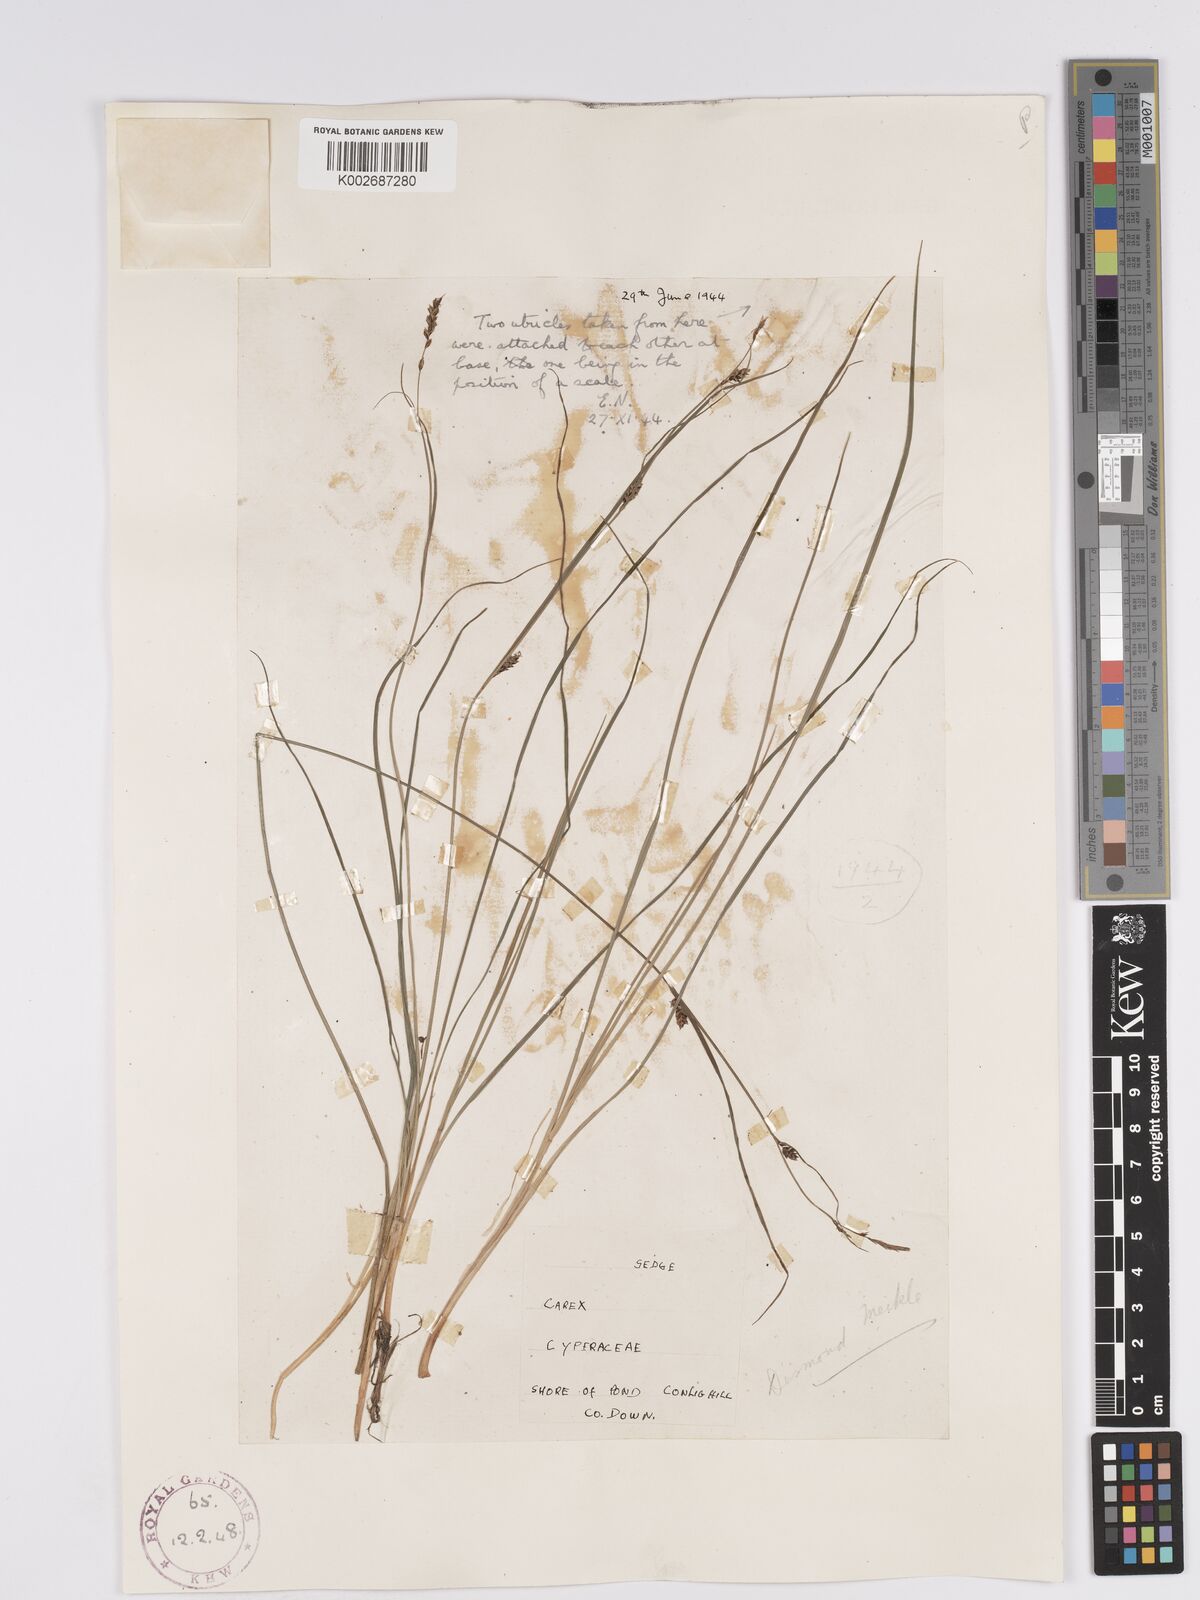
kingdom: Plantae
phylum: Tracheophyta
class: Liliopsida
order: Poales
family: Cyperaceae
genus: Carex
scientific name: Carex nigra
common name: Common sedge
